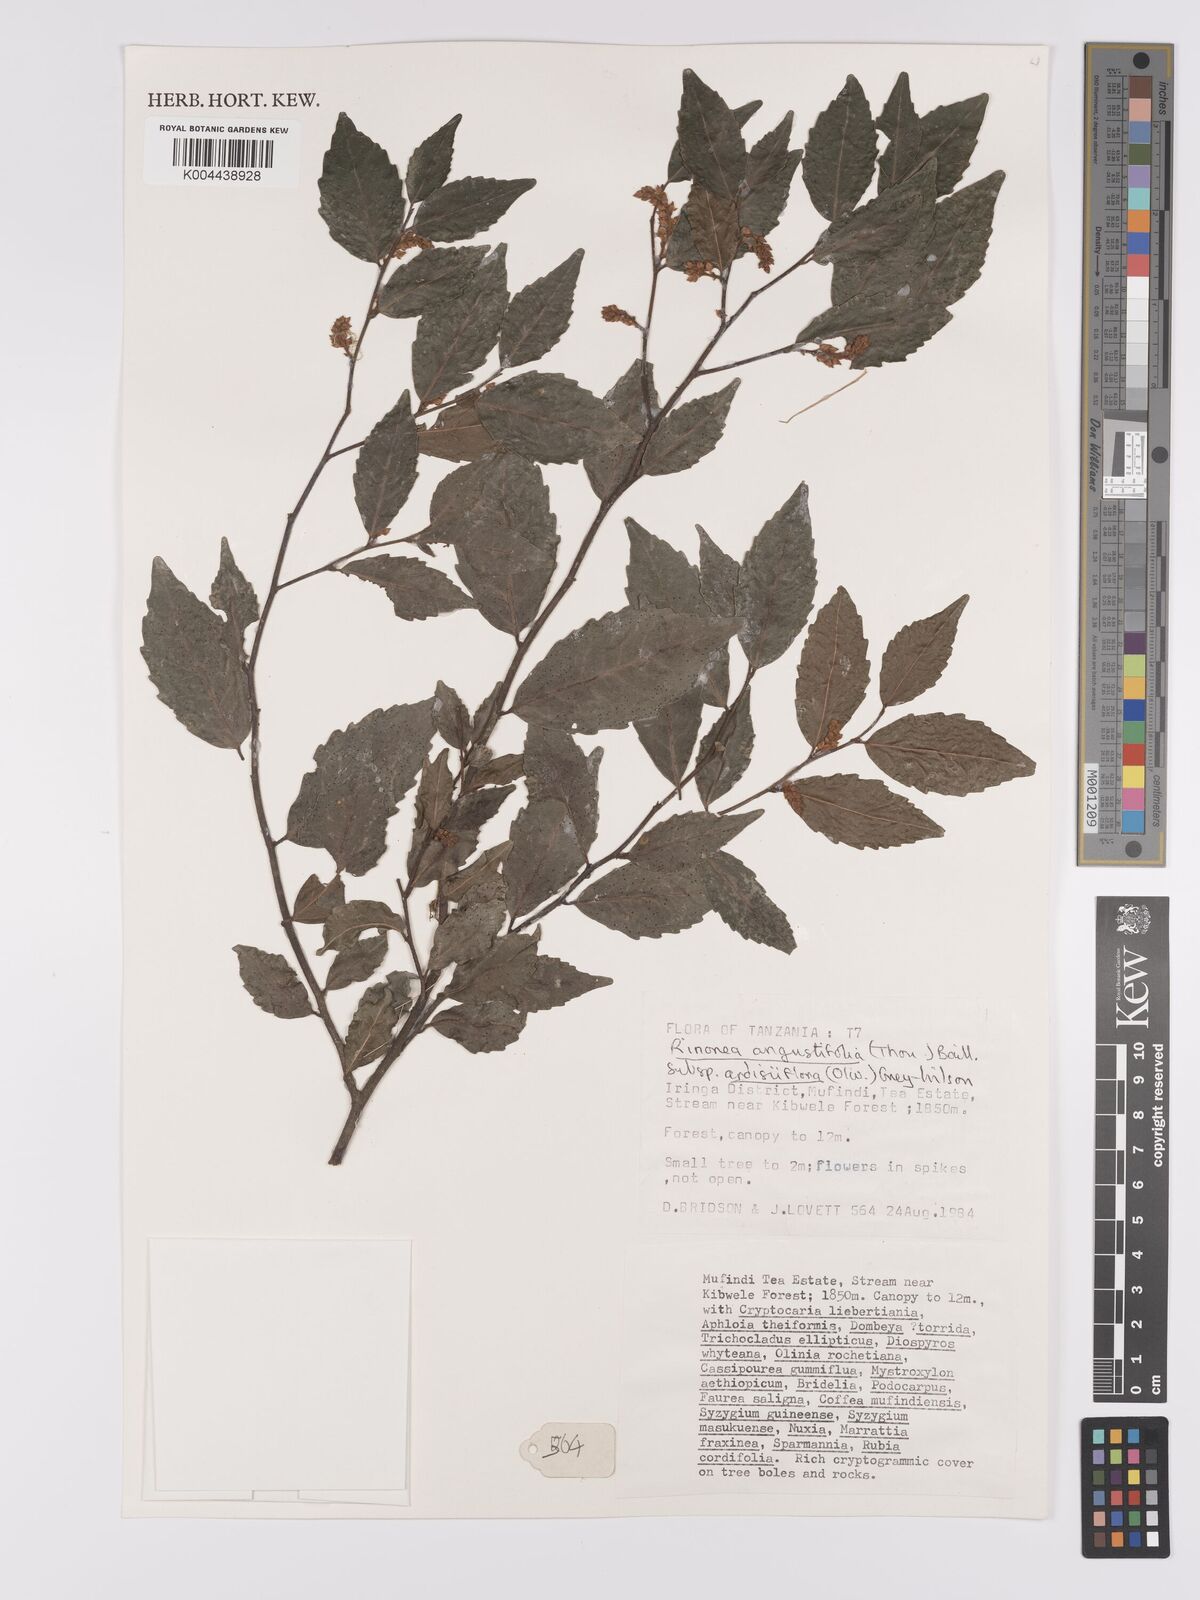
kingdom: Plantae
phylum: Tracheophyta
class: Magnoliopsida
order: Malpighiales
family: Violaceae
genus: Rinorea
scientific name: Rinorea angustifolia
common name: White violet-bush
